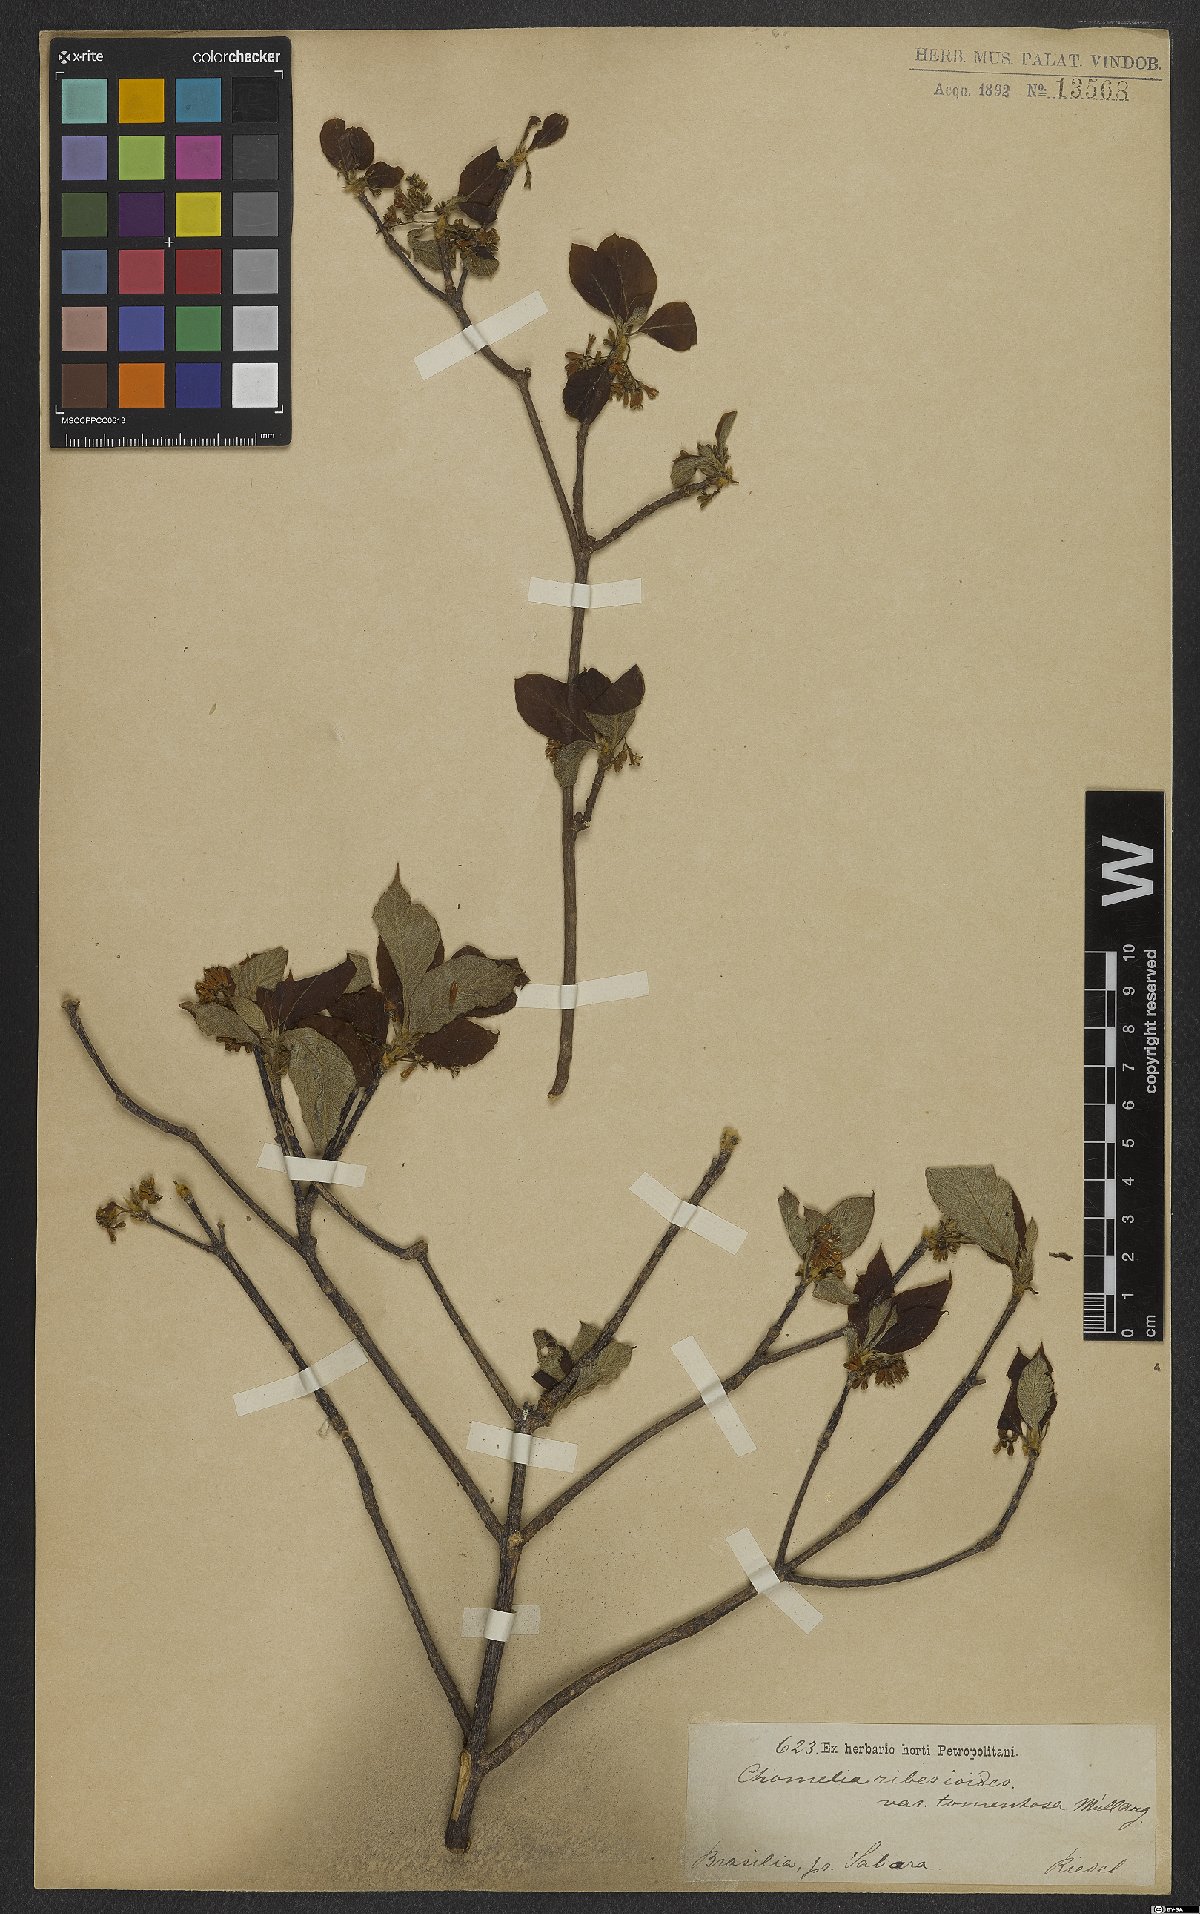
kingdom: Plantae
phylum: Tracheophyta
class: Magnoliopsida
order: Gentianales
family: Rubiaceae
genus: Chomelia
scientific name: Chomelia ribesioides
